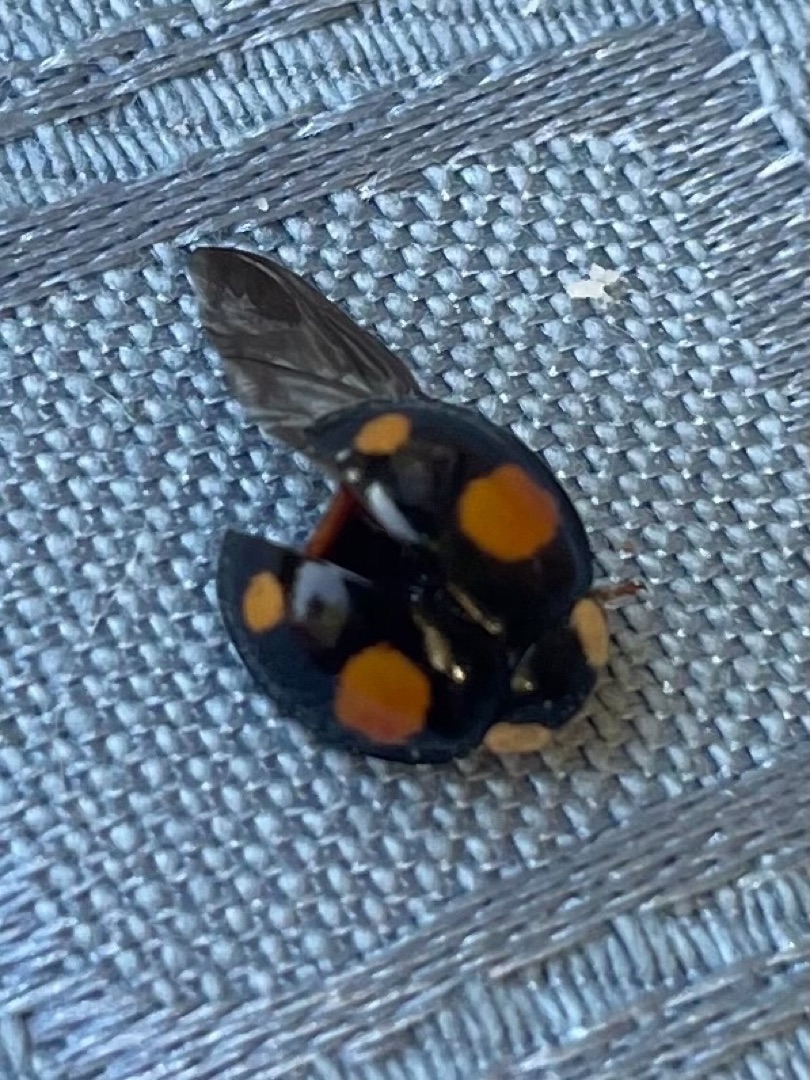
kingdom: Animalia
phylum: Arthropoda
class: Insecta
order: Coleoptera
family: Coccinellidae
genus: Harmonia
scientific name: Harmonia axyridis
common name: Harlekinmariehøne
